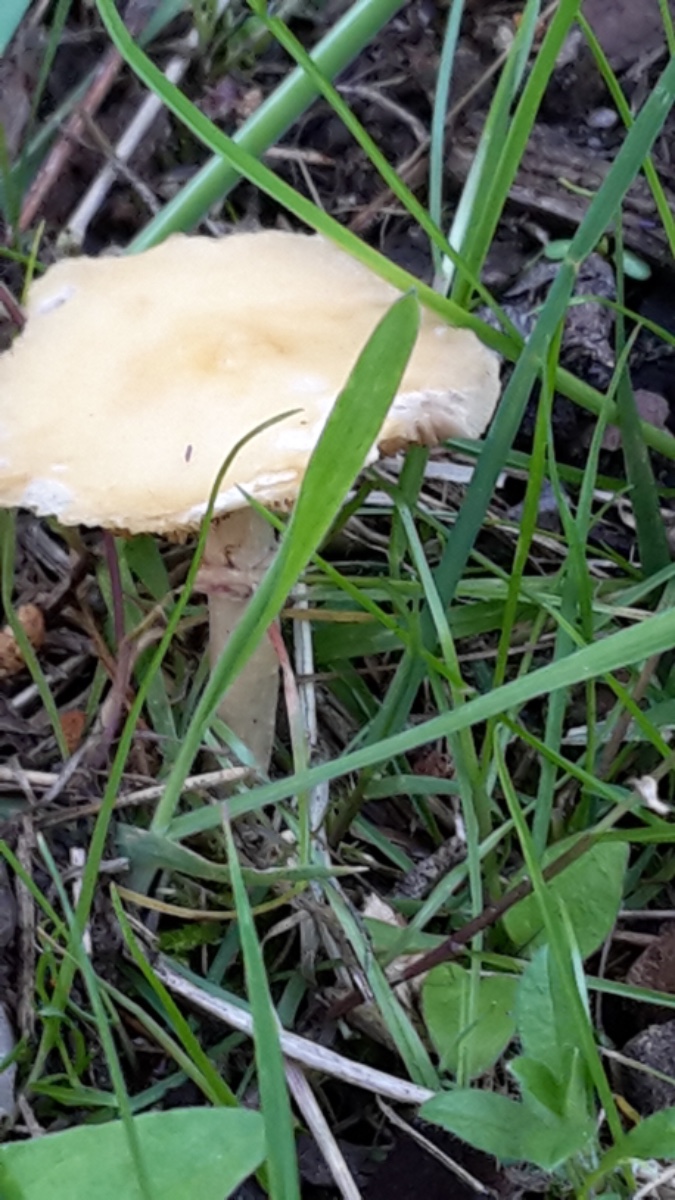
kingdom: Fungi
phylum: Basidiomycota
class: Agaricomycetes
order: Agaricales
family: Strophariaceae
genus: Agrocybe
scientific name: Agrocybe praecox
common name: tidlig agerhat
